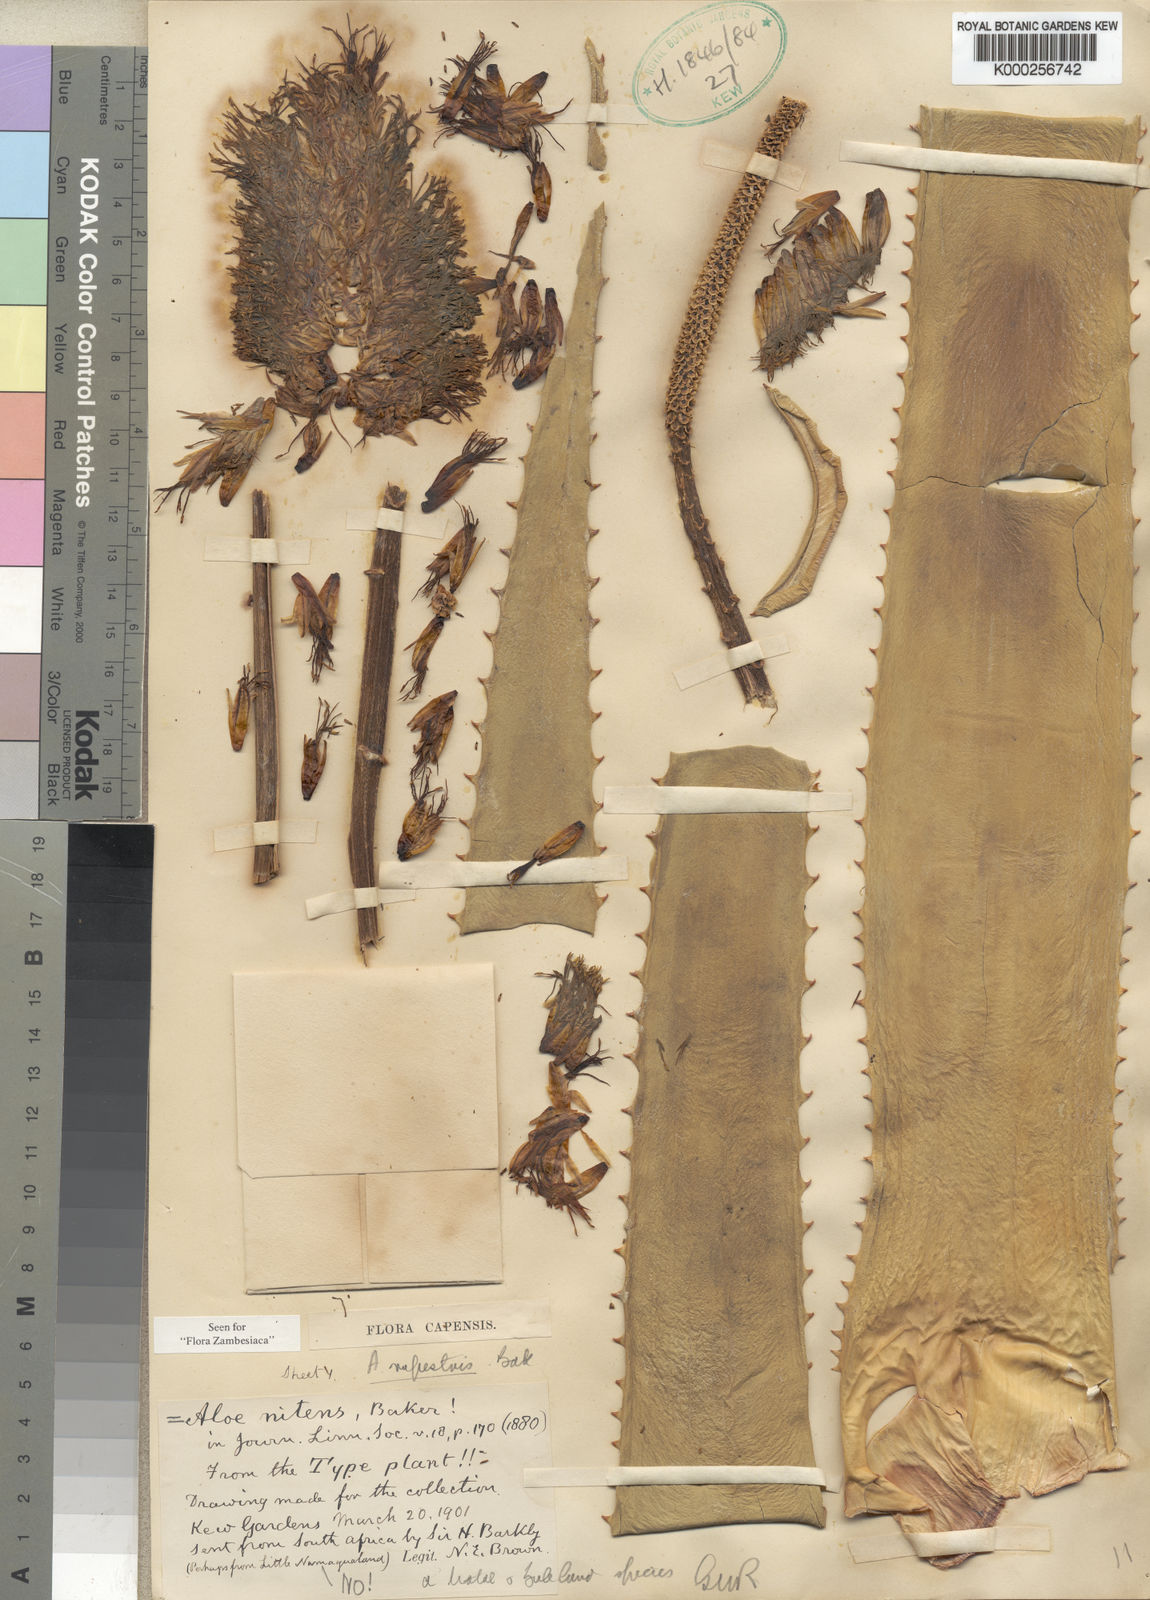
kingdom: Plantae
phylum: Tracheophyta
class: Liliopsida
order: Asparagales
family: Asphodelaceae
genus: Aloe
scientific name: Aloe rupestris
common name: Bottle-brush aloe
